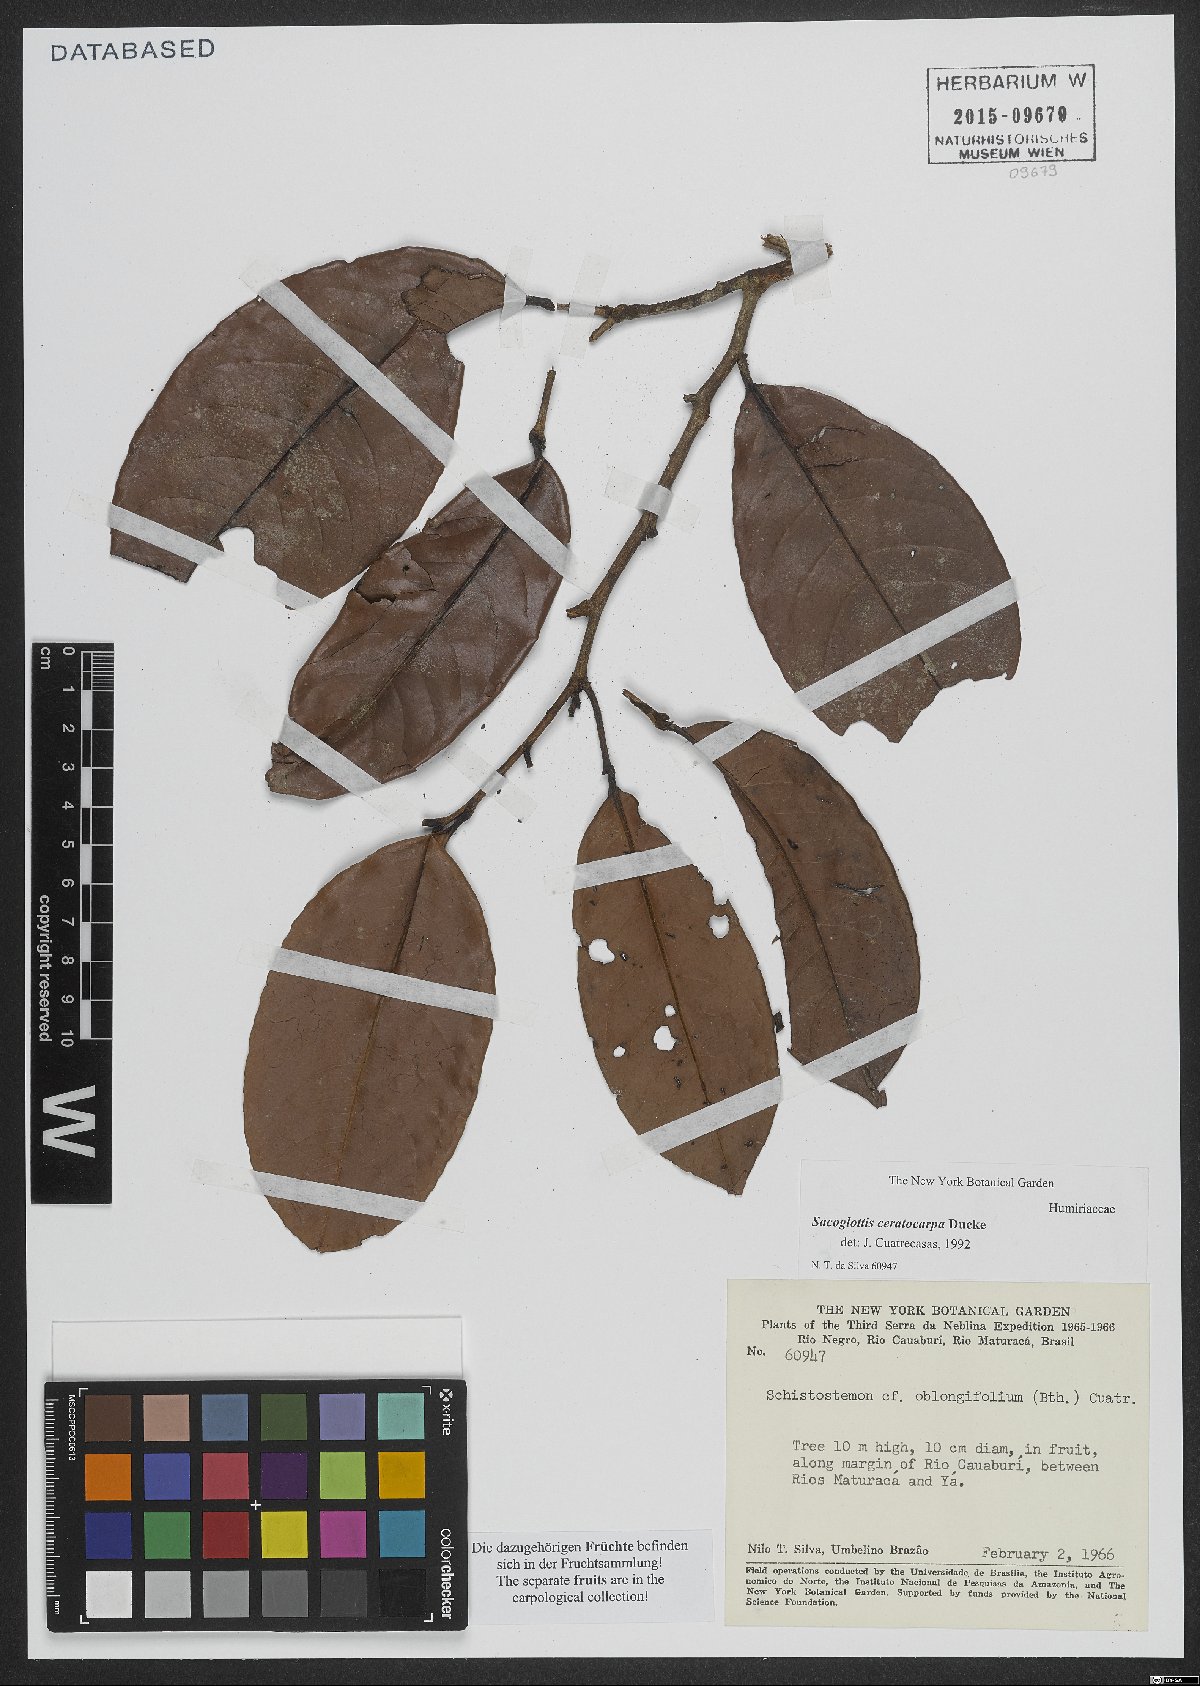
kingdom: Plantae
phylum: Tracheophyta
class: Magnoliopsida
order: Malpighiales
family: Humiriaceae
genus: Sacoglottis
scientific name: Sacoglottis ceratocarpa
